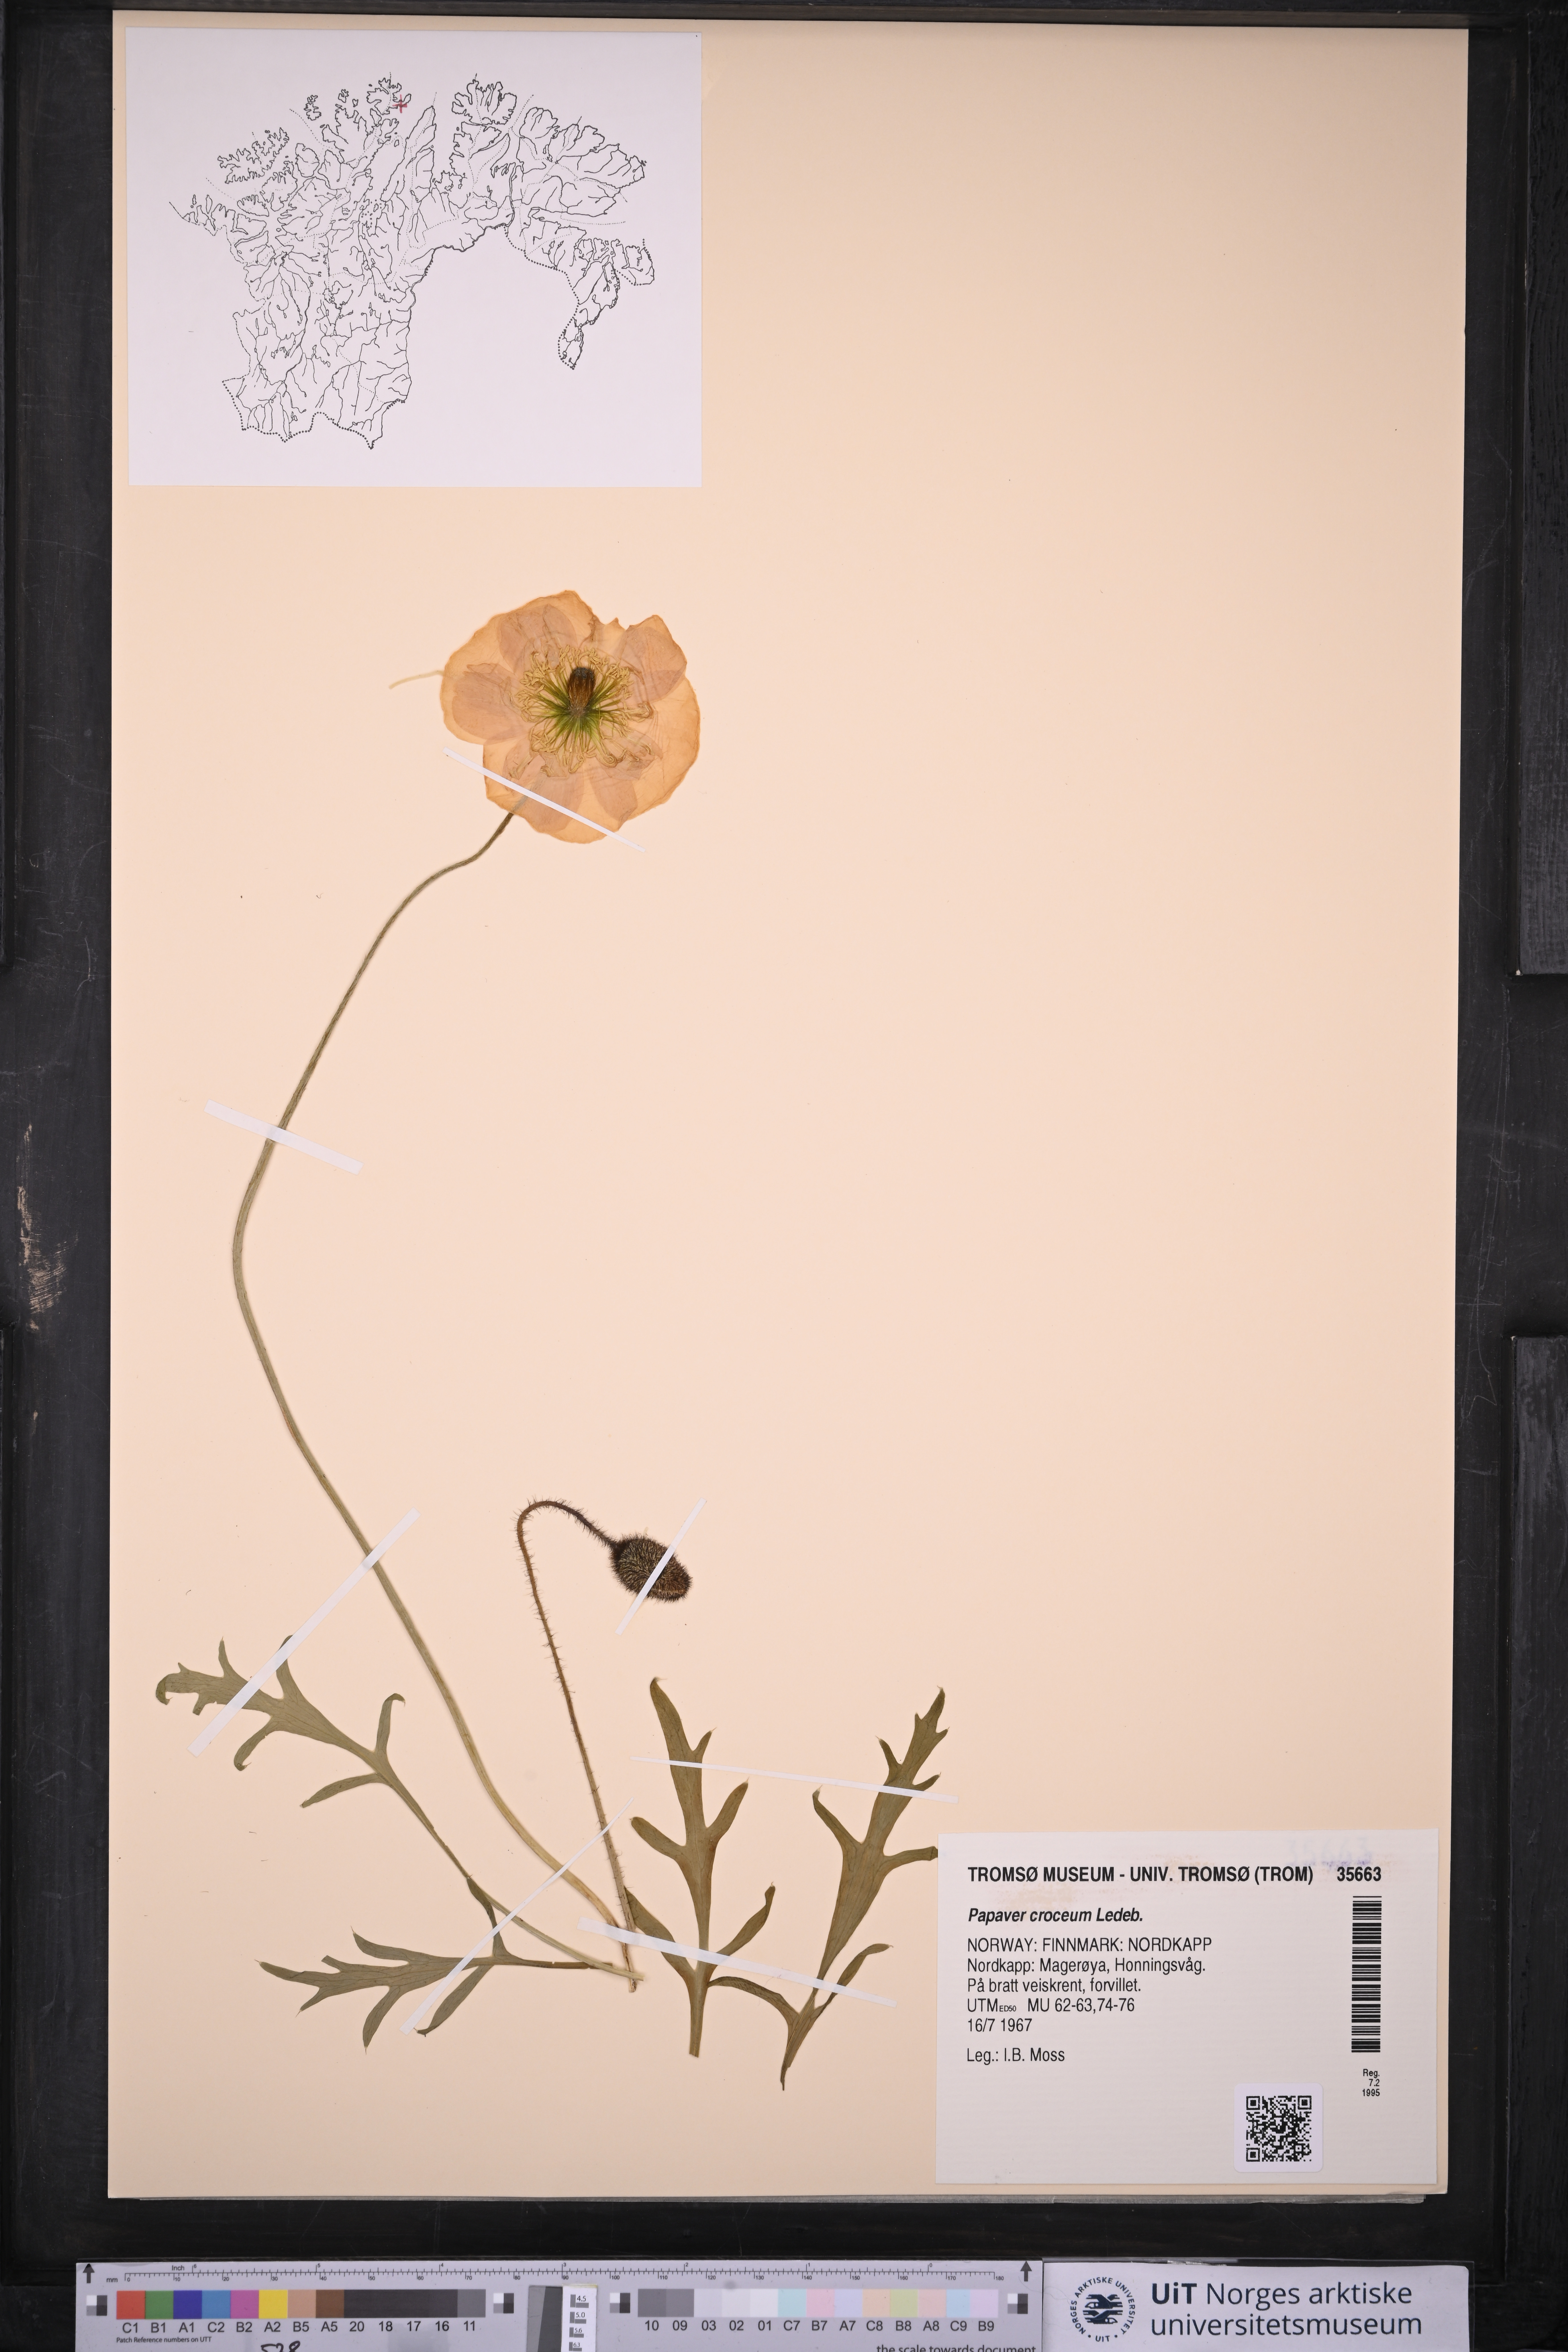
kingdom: Plantae
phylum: Tracheophyta
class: Magnoliopsida
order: Ranunculales
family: Papaveraceae
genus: Papaver
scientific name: Papaver croceum
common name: Siberian poppy
